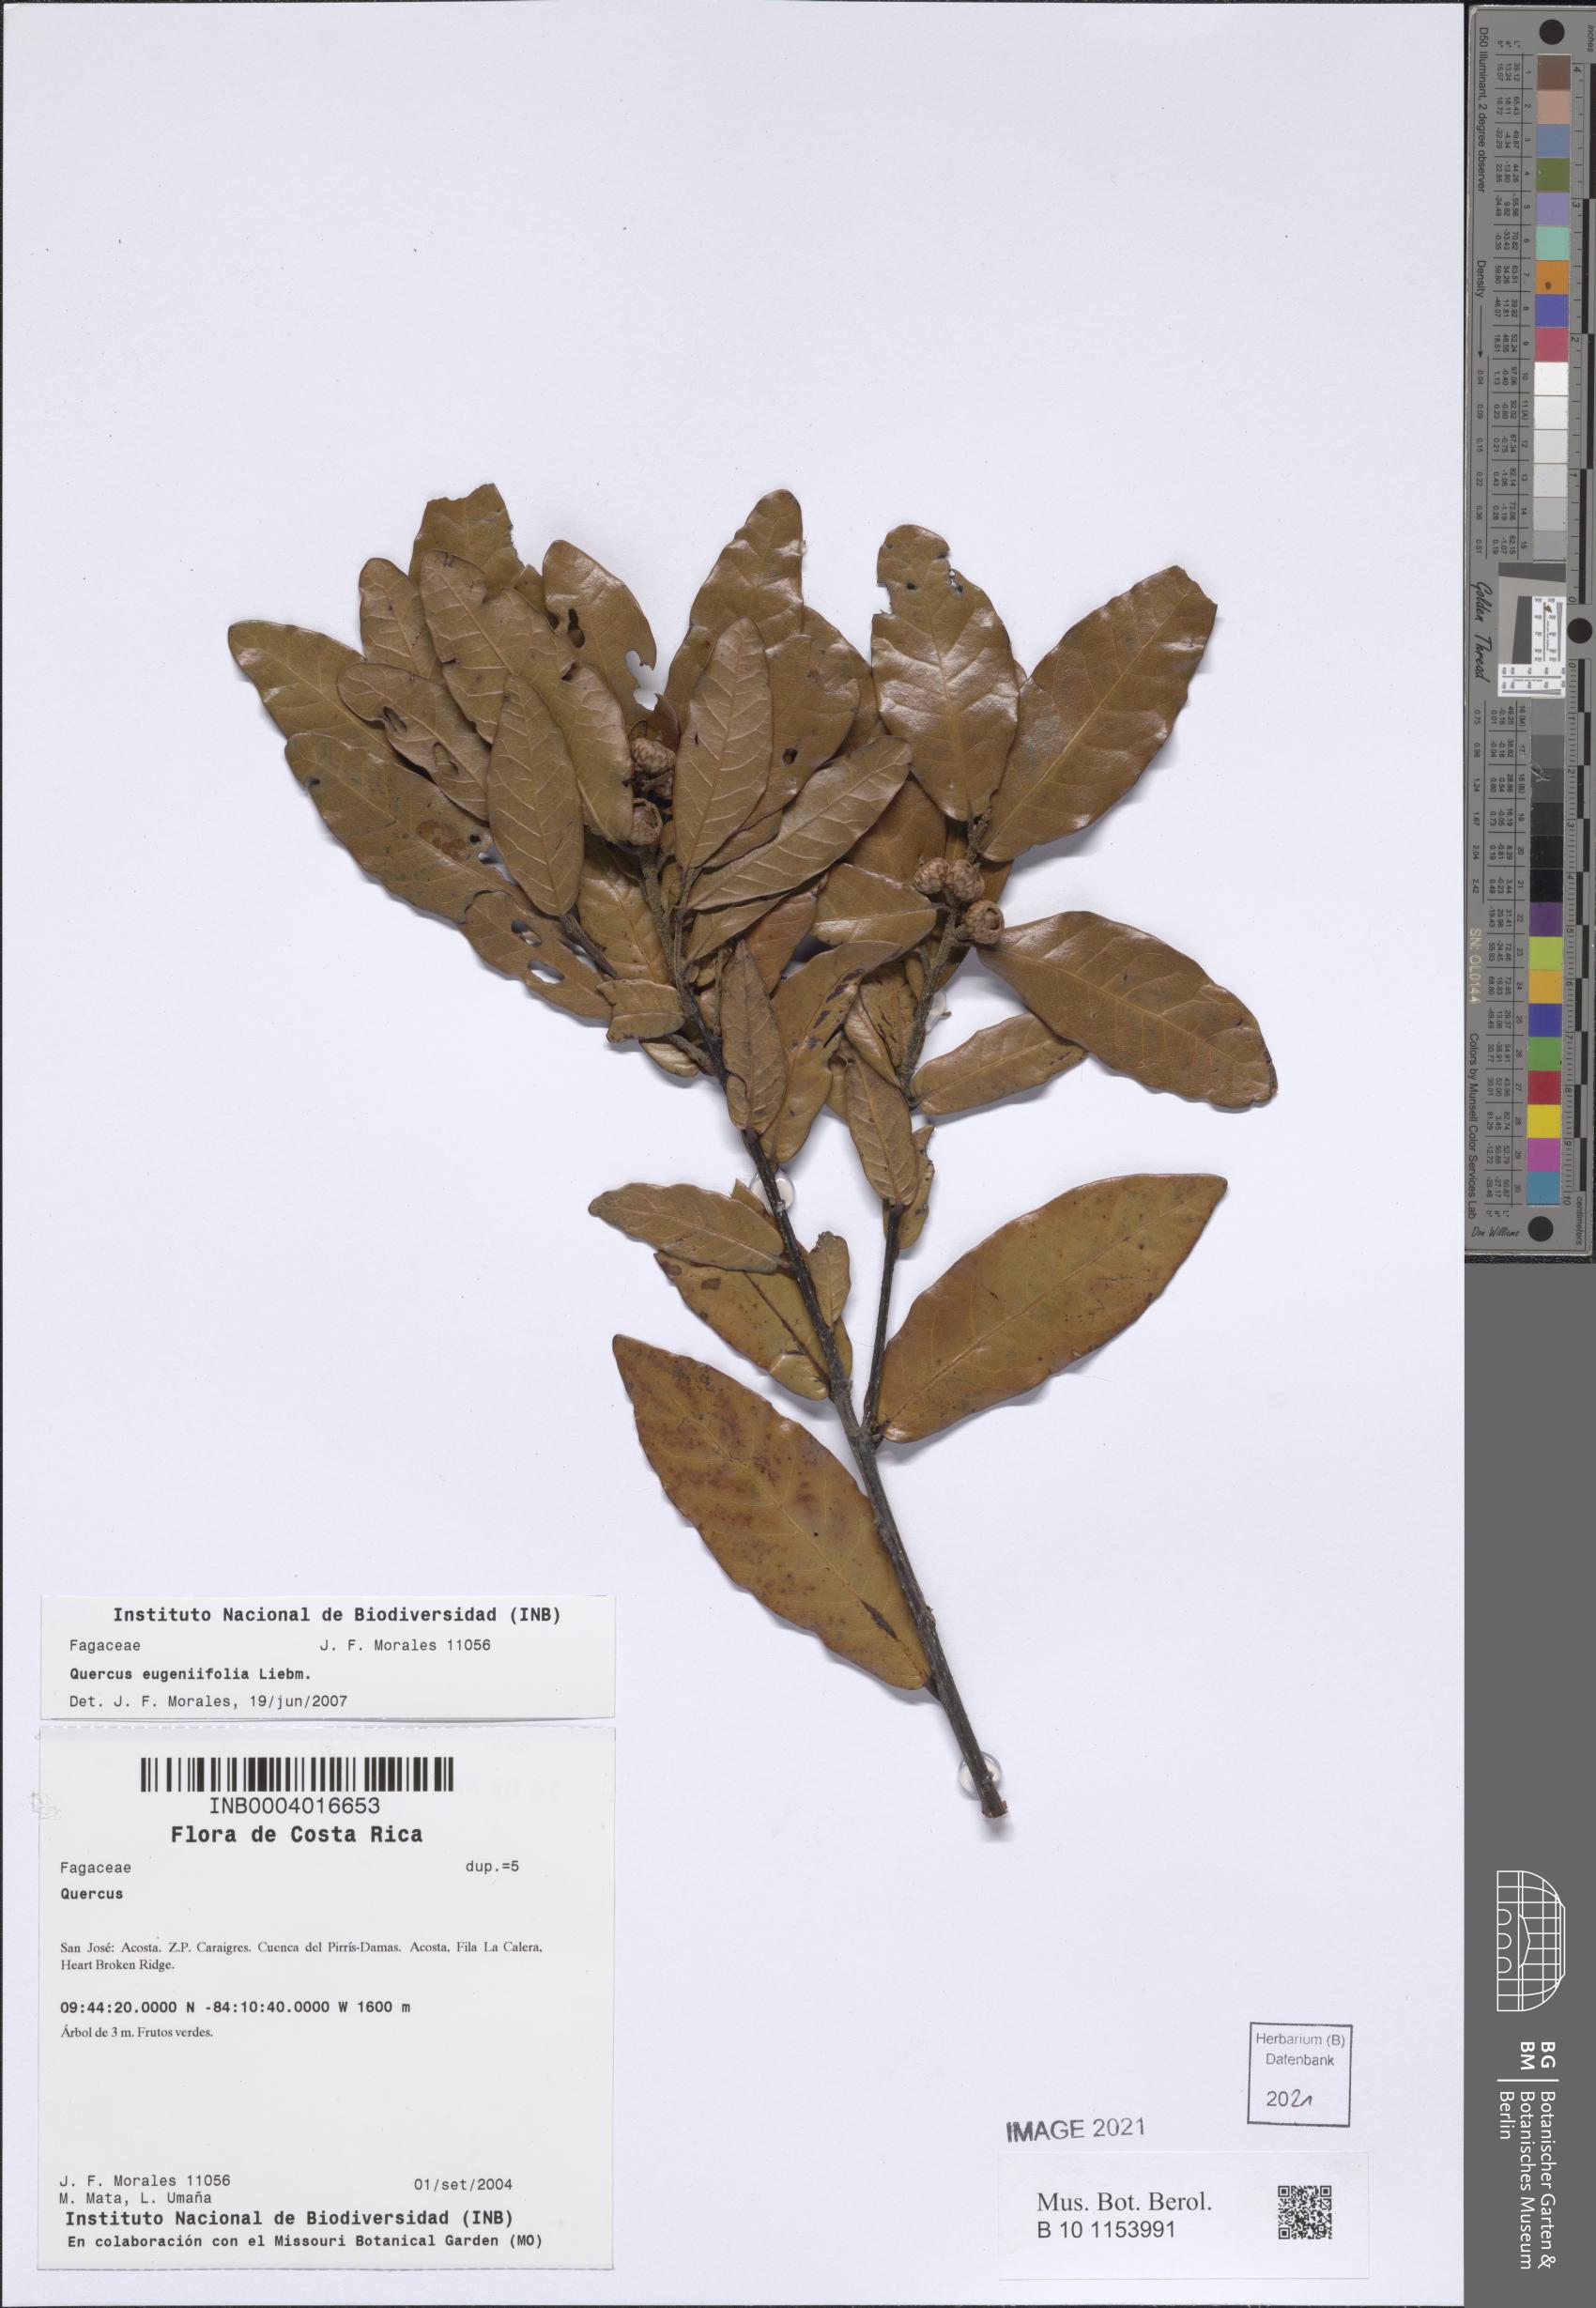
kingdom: Plantae
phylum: Tracheophyta
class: Magnoliopsida
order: Fagales
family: Fagaceae
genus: Quercus
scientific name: Quercus seemannii
